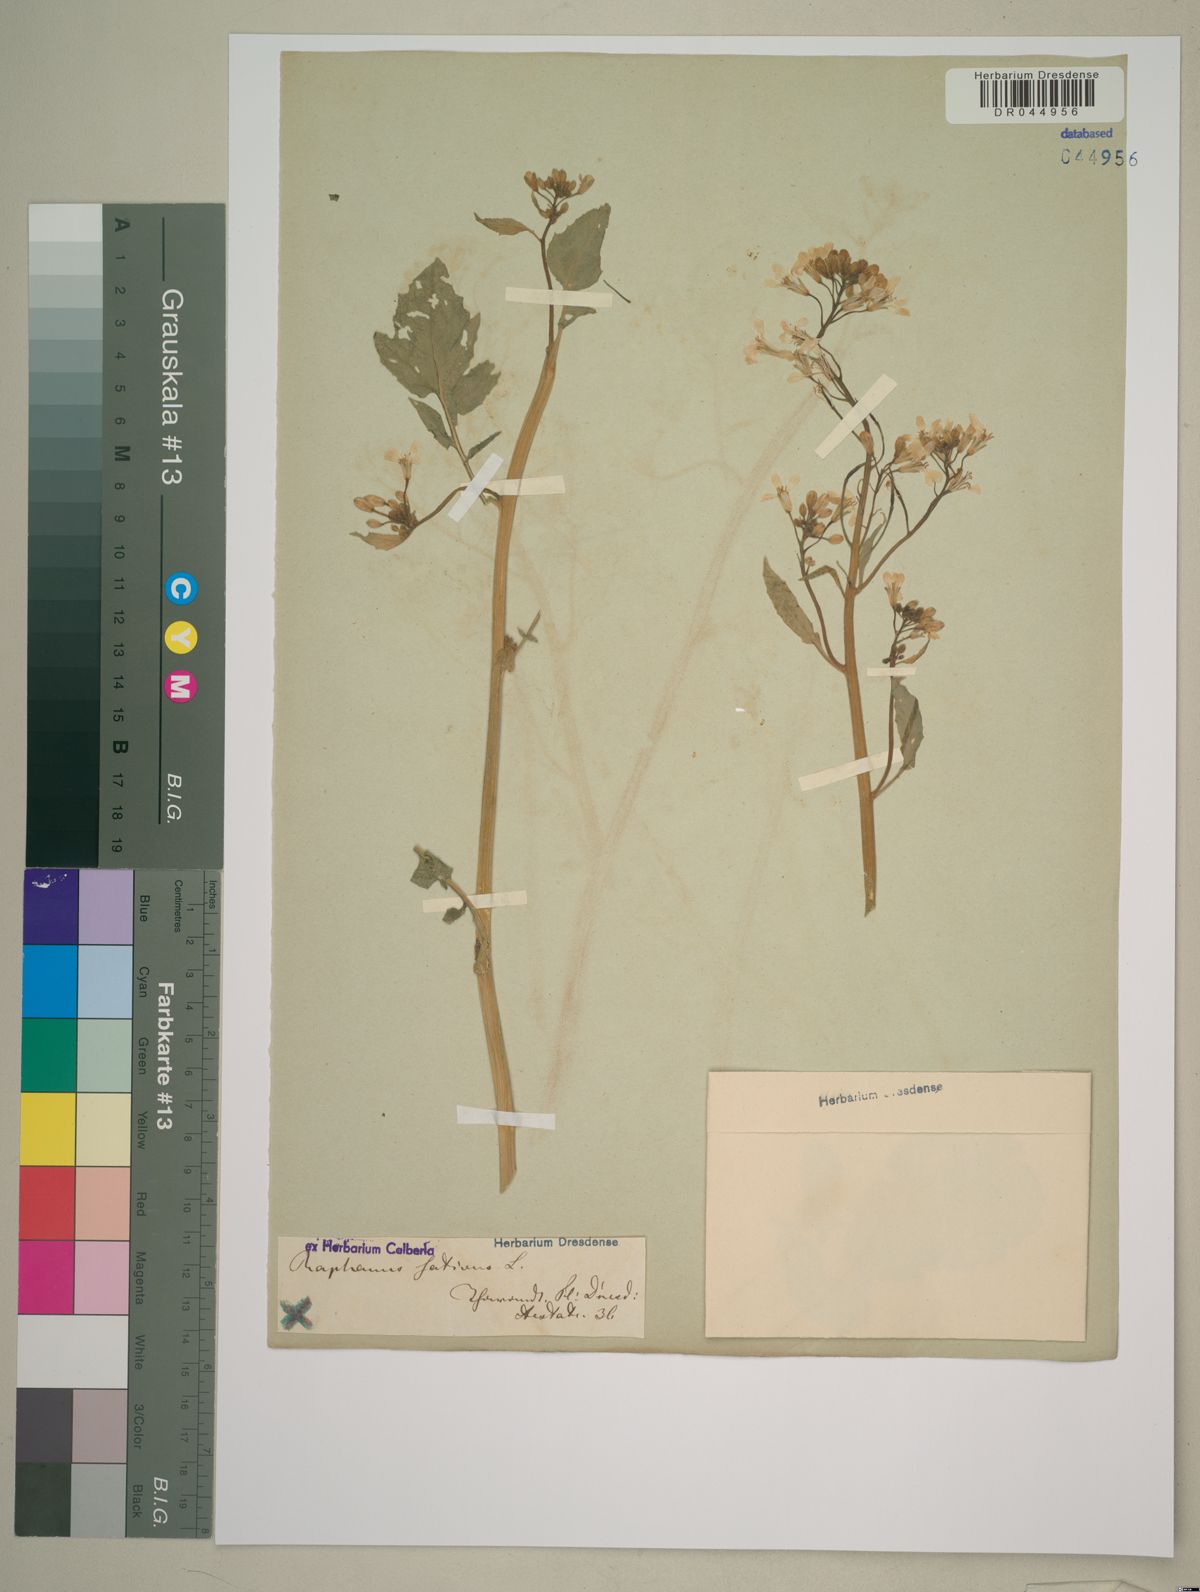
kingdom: Plantae
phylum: Tracheophyta
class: Magnoliopsida
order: Brassicales
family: Brassicaceae
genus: Raphanus
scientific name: Raphanus sativus
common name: Cultivated radish
